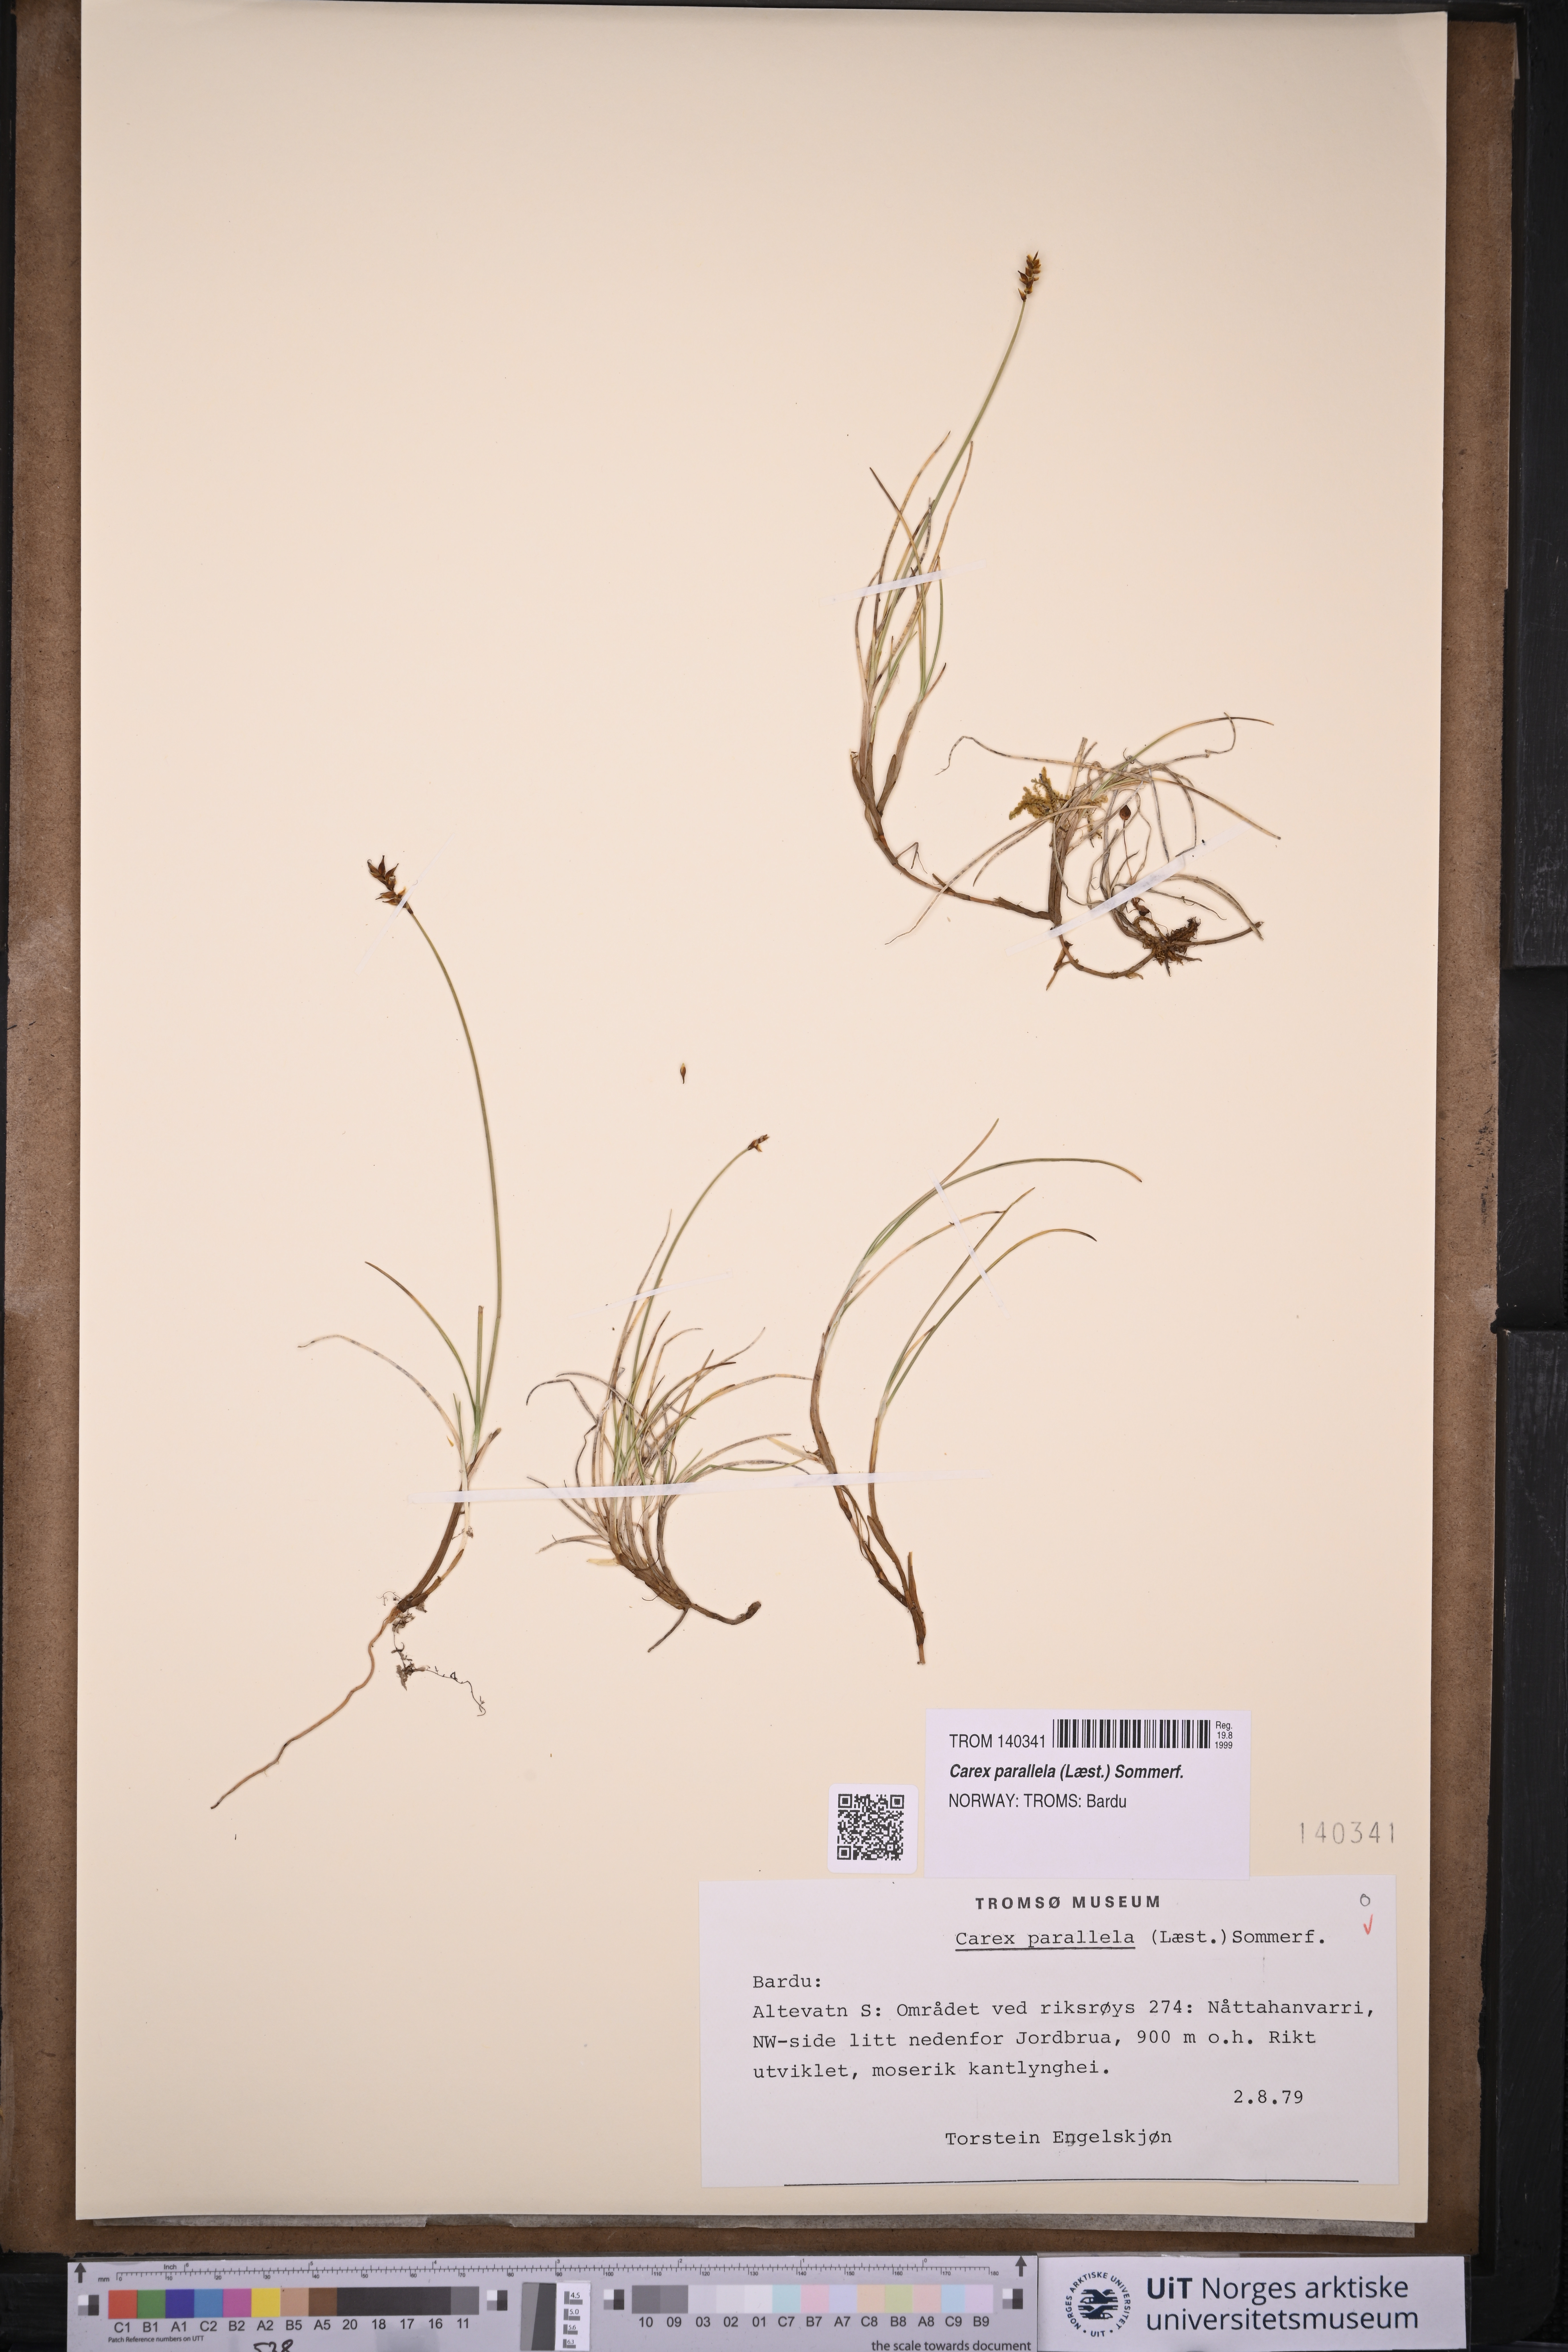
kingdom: Plantae
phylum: Tracheophyta
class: Liliopsida
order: Poales
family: Cyperaceae
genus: Carex
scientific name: Carex parallela
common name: Parallel sedge
